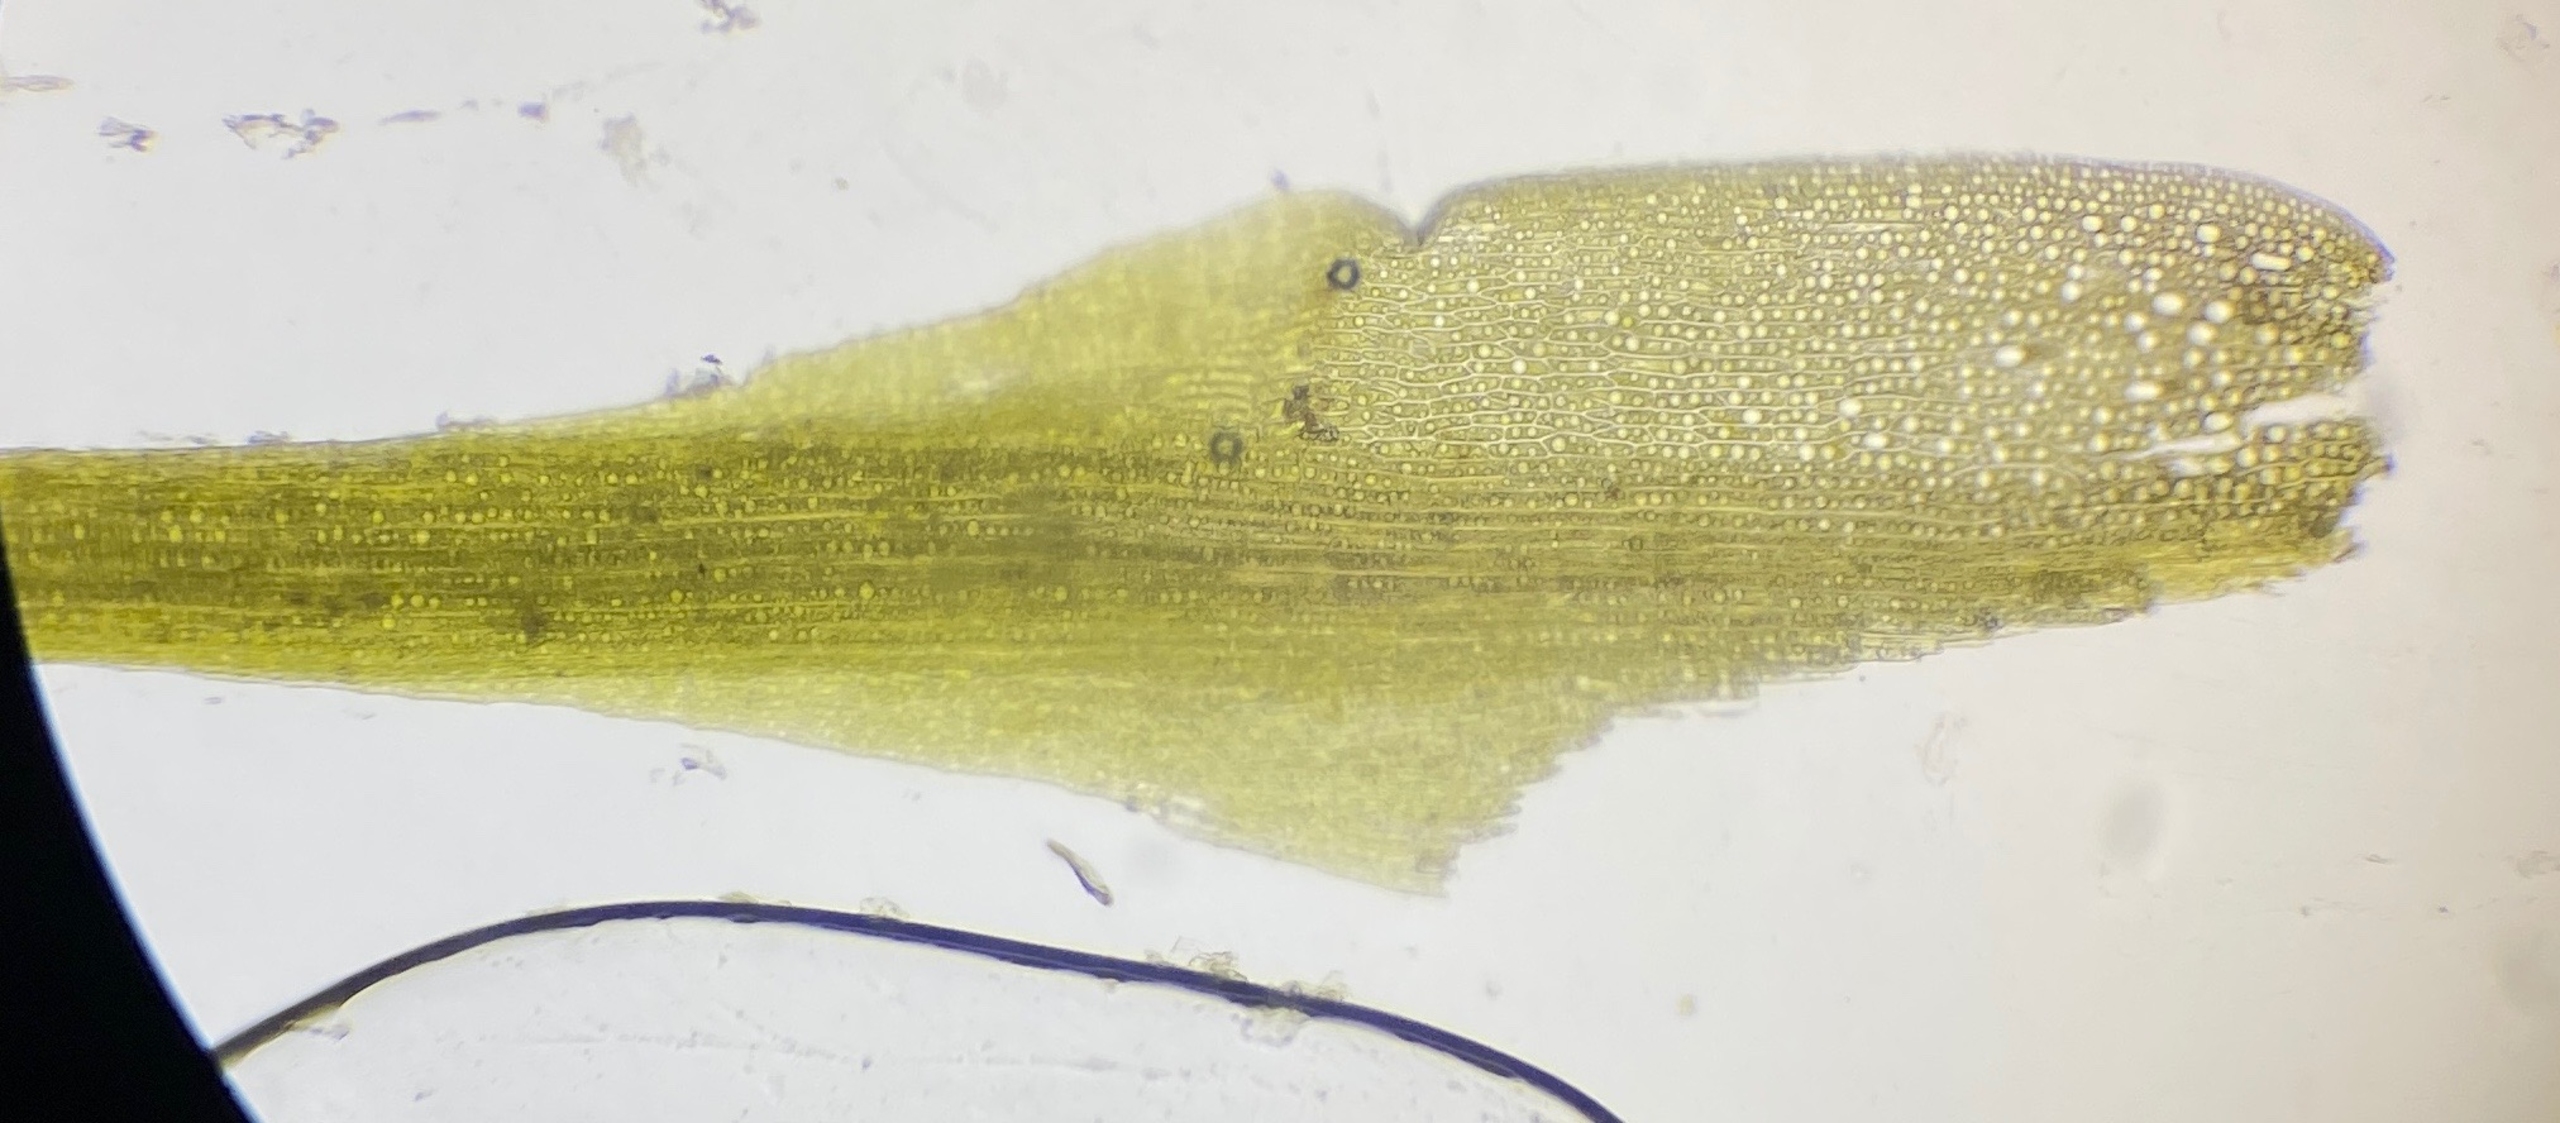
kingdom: Plantae
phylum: Bryophyta
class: Bryopsida
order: Dicranales
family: Ditrichaceae
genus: Pleuridium
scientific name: Pleuridium subulatum
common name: Kortstilket sylbladsmos
